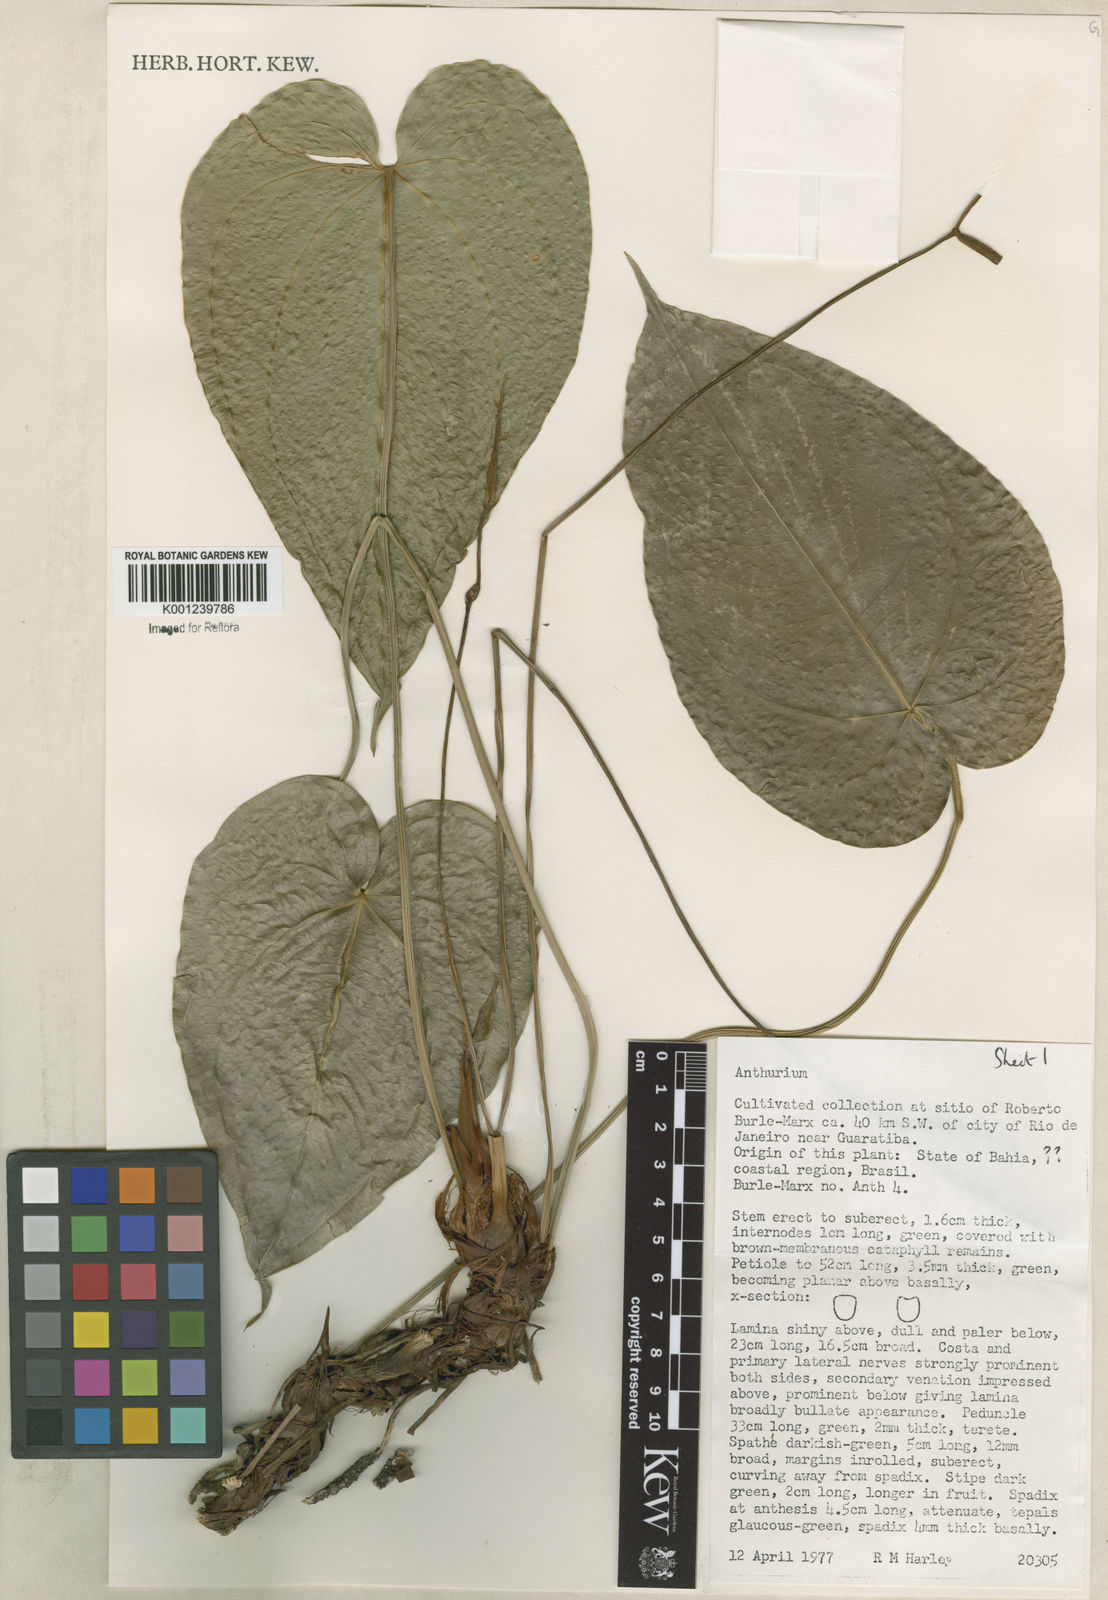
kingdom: Plantae
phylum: Tracheophyta
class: Liliopsida
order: Alismatales
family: Araceae
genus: Anthurium
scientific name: Anthurium
